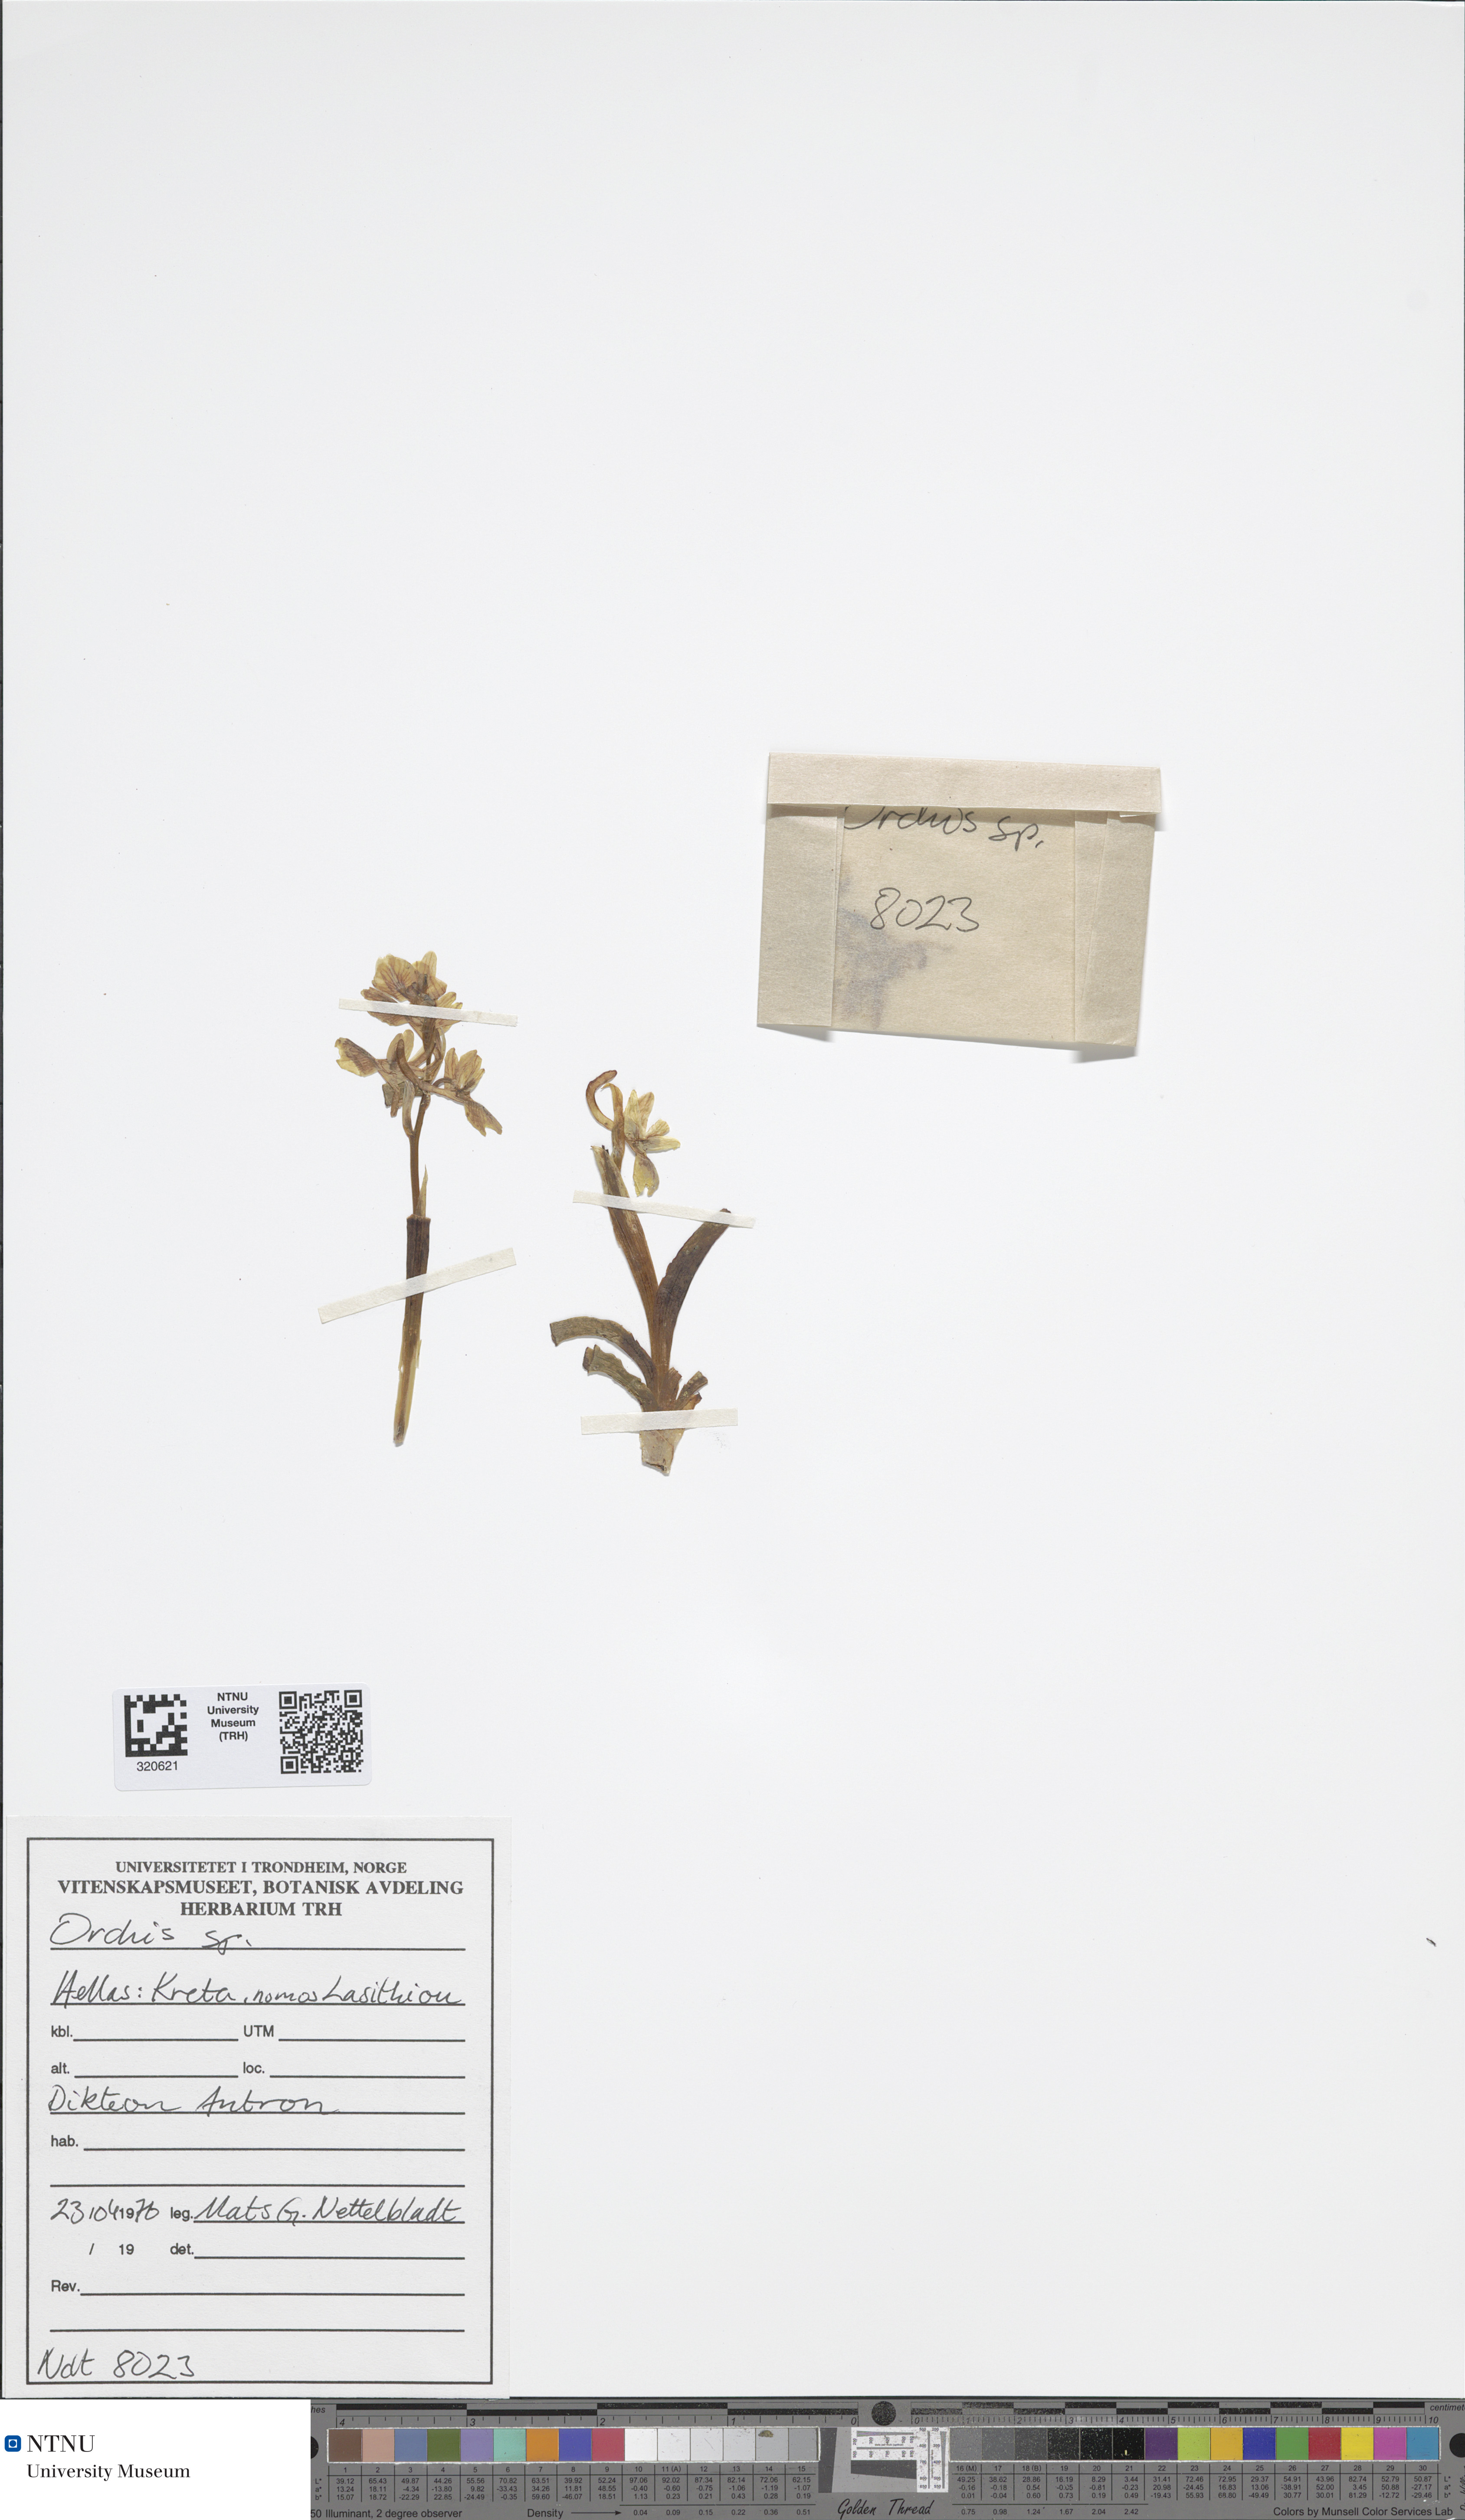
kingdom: Plantae
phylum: Tracheophyta
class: Liliopsida
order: Asparagales
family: Orchidaceae
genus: Orchis
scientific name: Orchis
